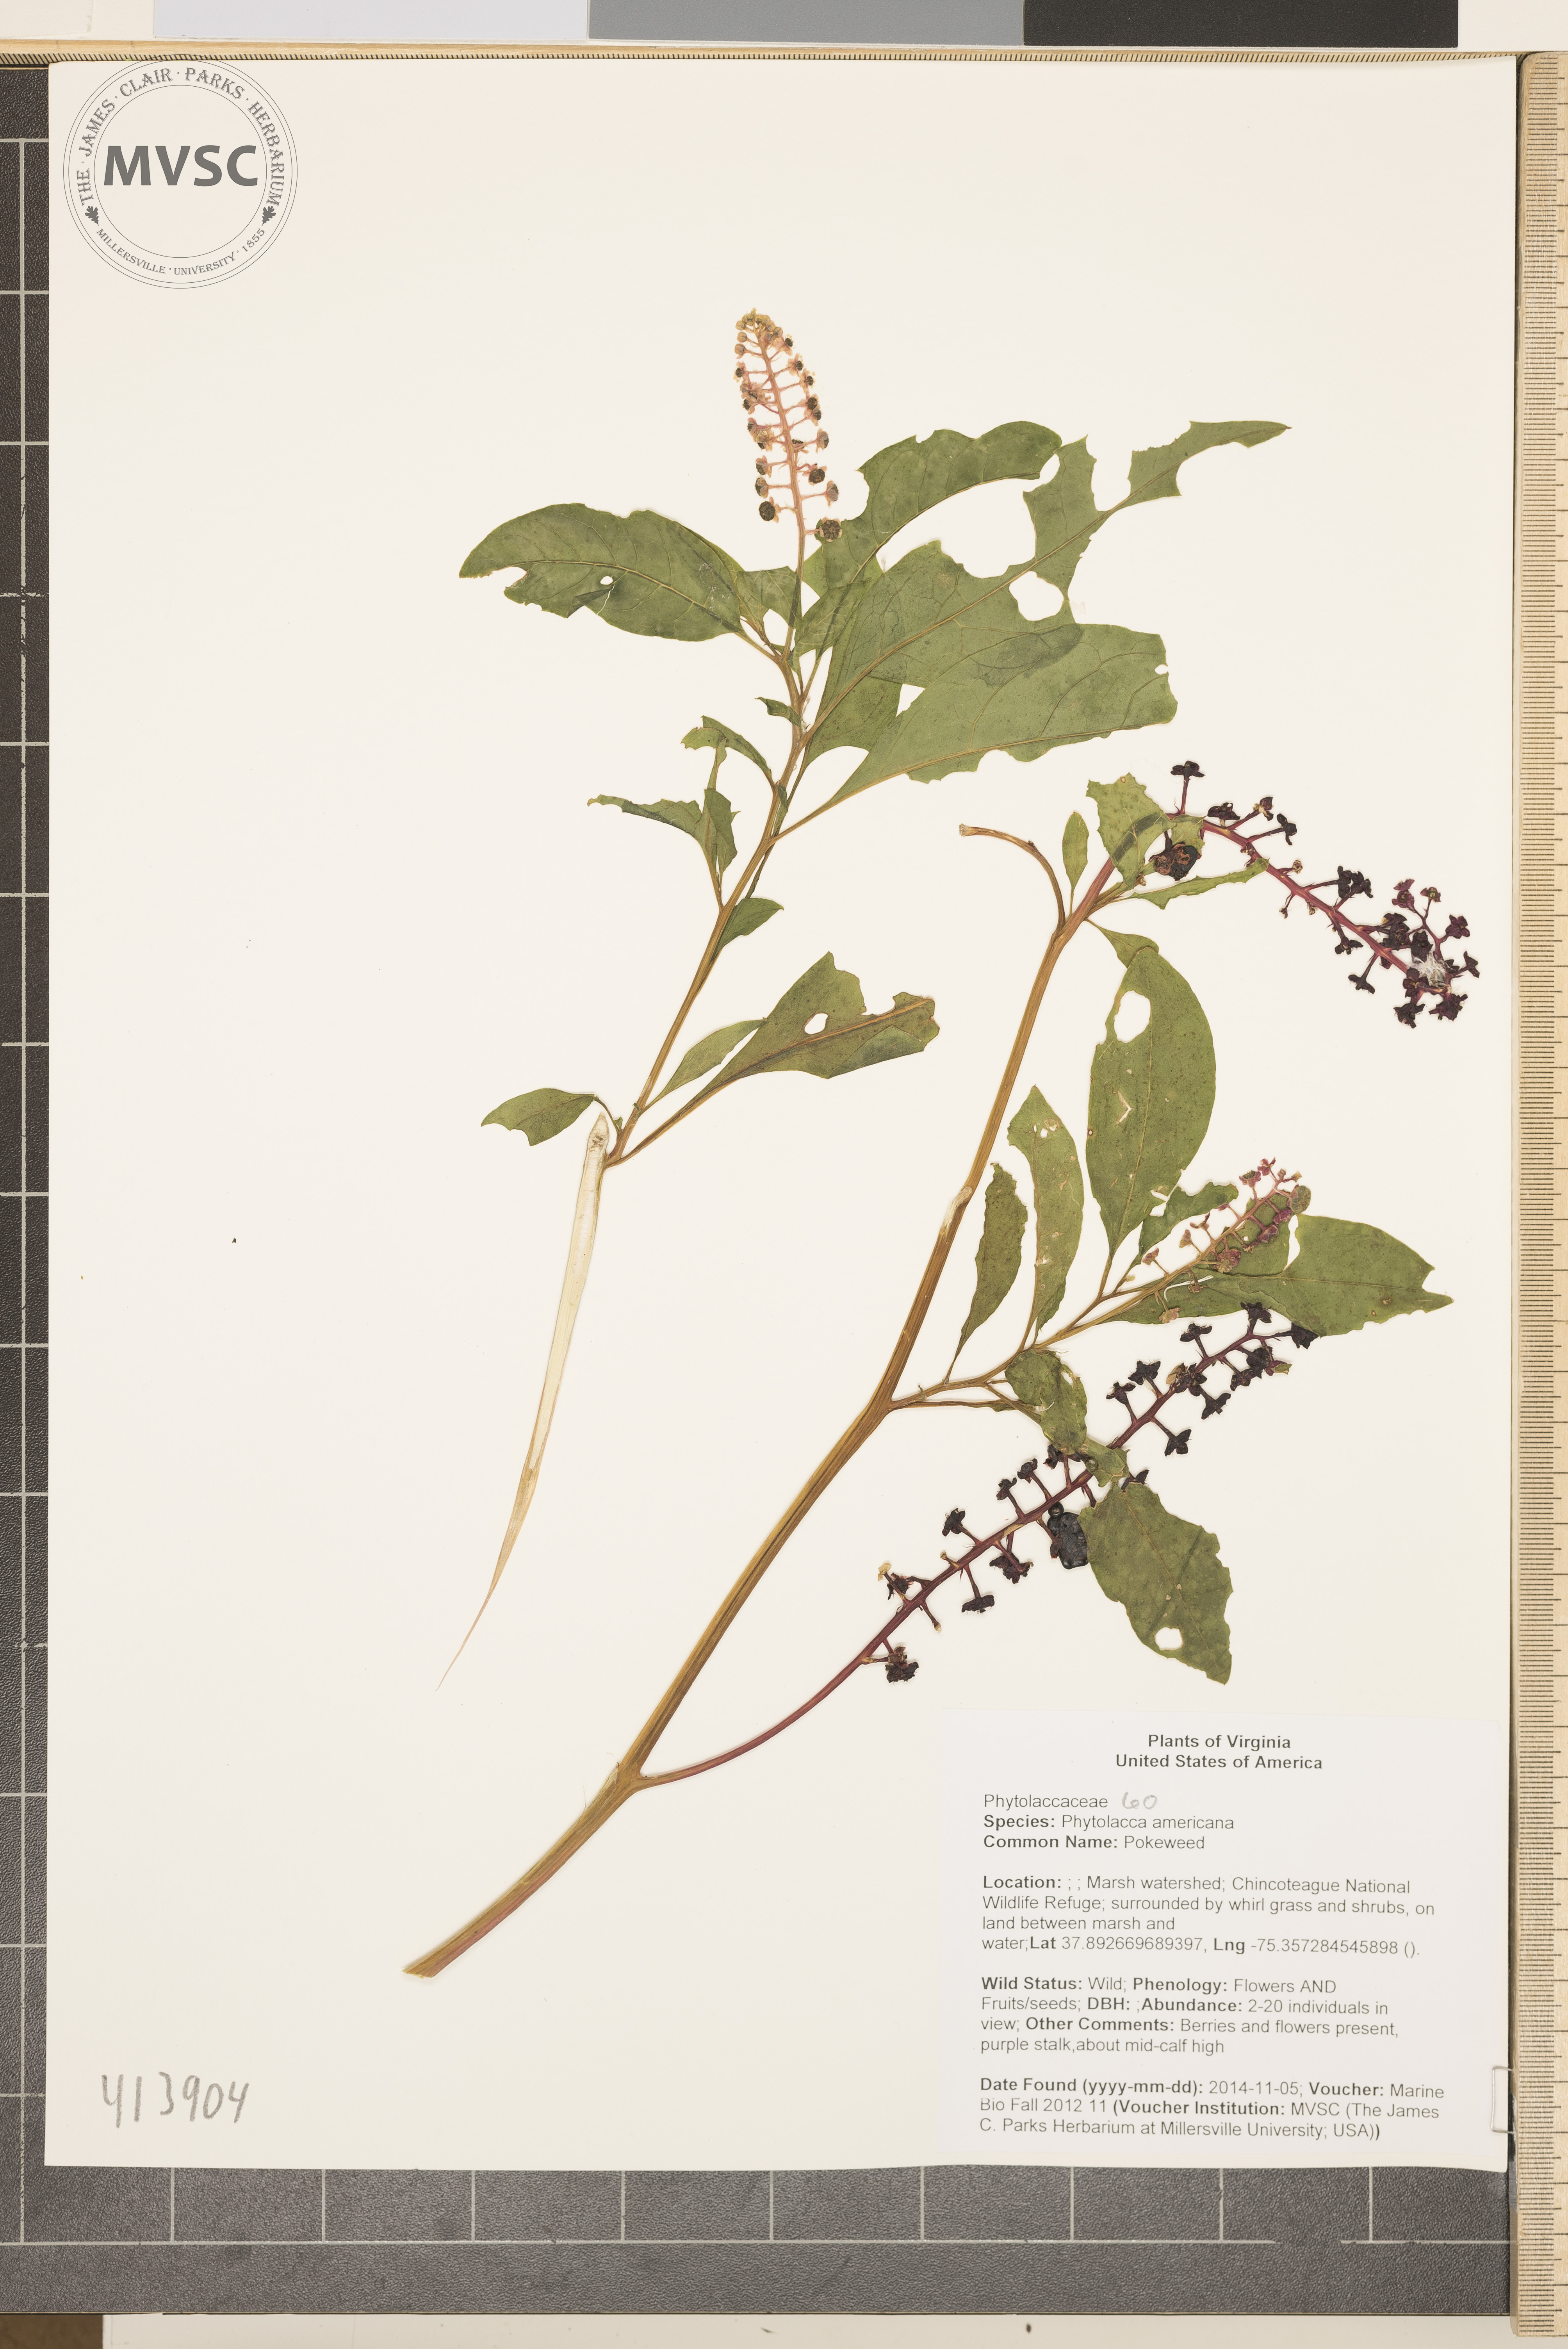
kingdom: Plantae
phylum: Tracheophyta
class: Magnoliopsida
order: Caryophyllales
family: Phytolaccaceae
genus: Phytolacca
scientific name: Phytolacca americana
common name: Pokeweed
